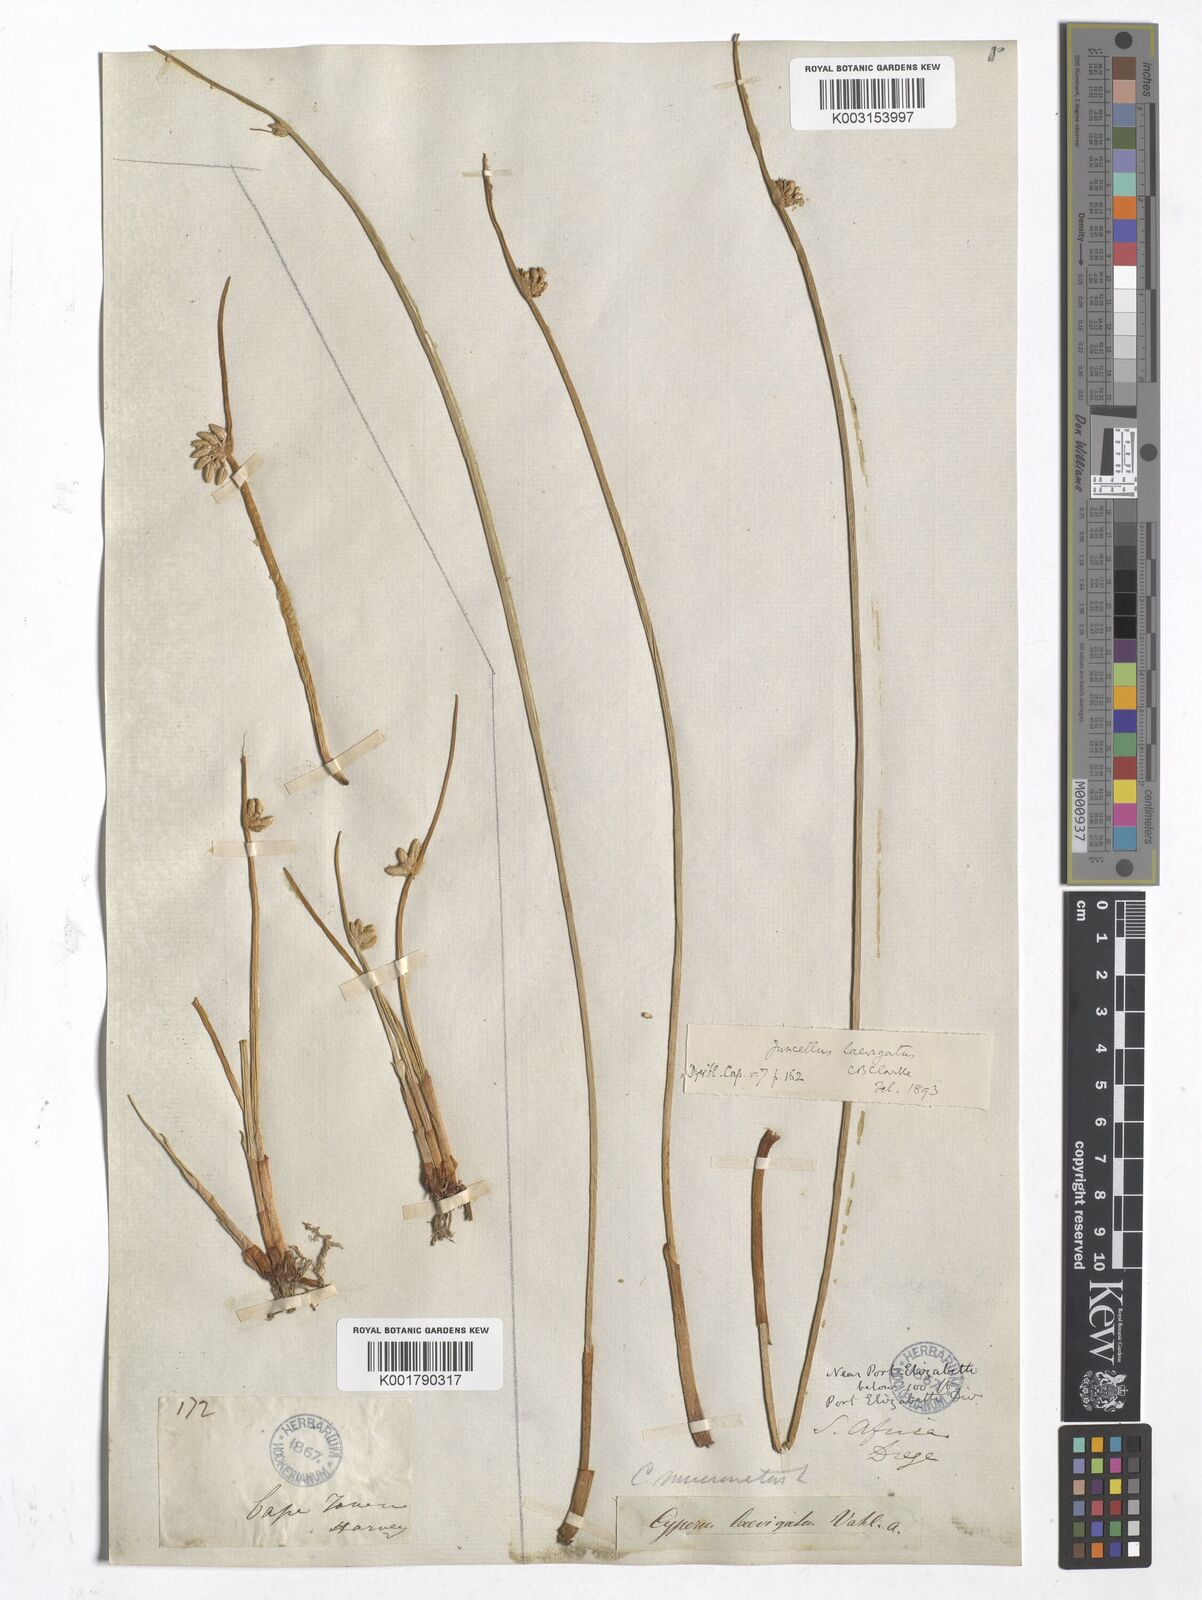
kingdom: Plantae
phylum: Tracheophyta
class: Liliopsida
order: Poales
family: Cyperaceae
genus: Cyperus
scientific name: Cyperus
